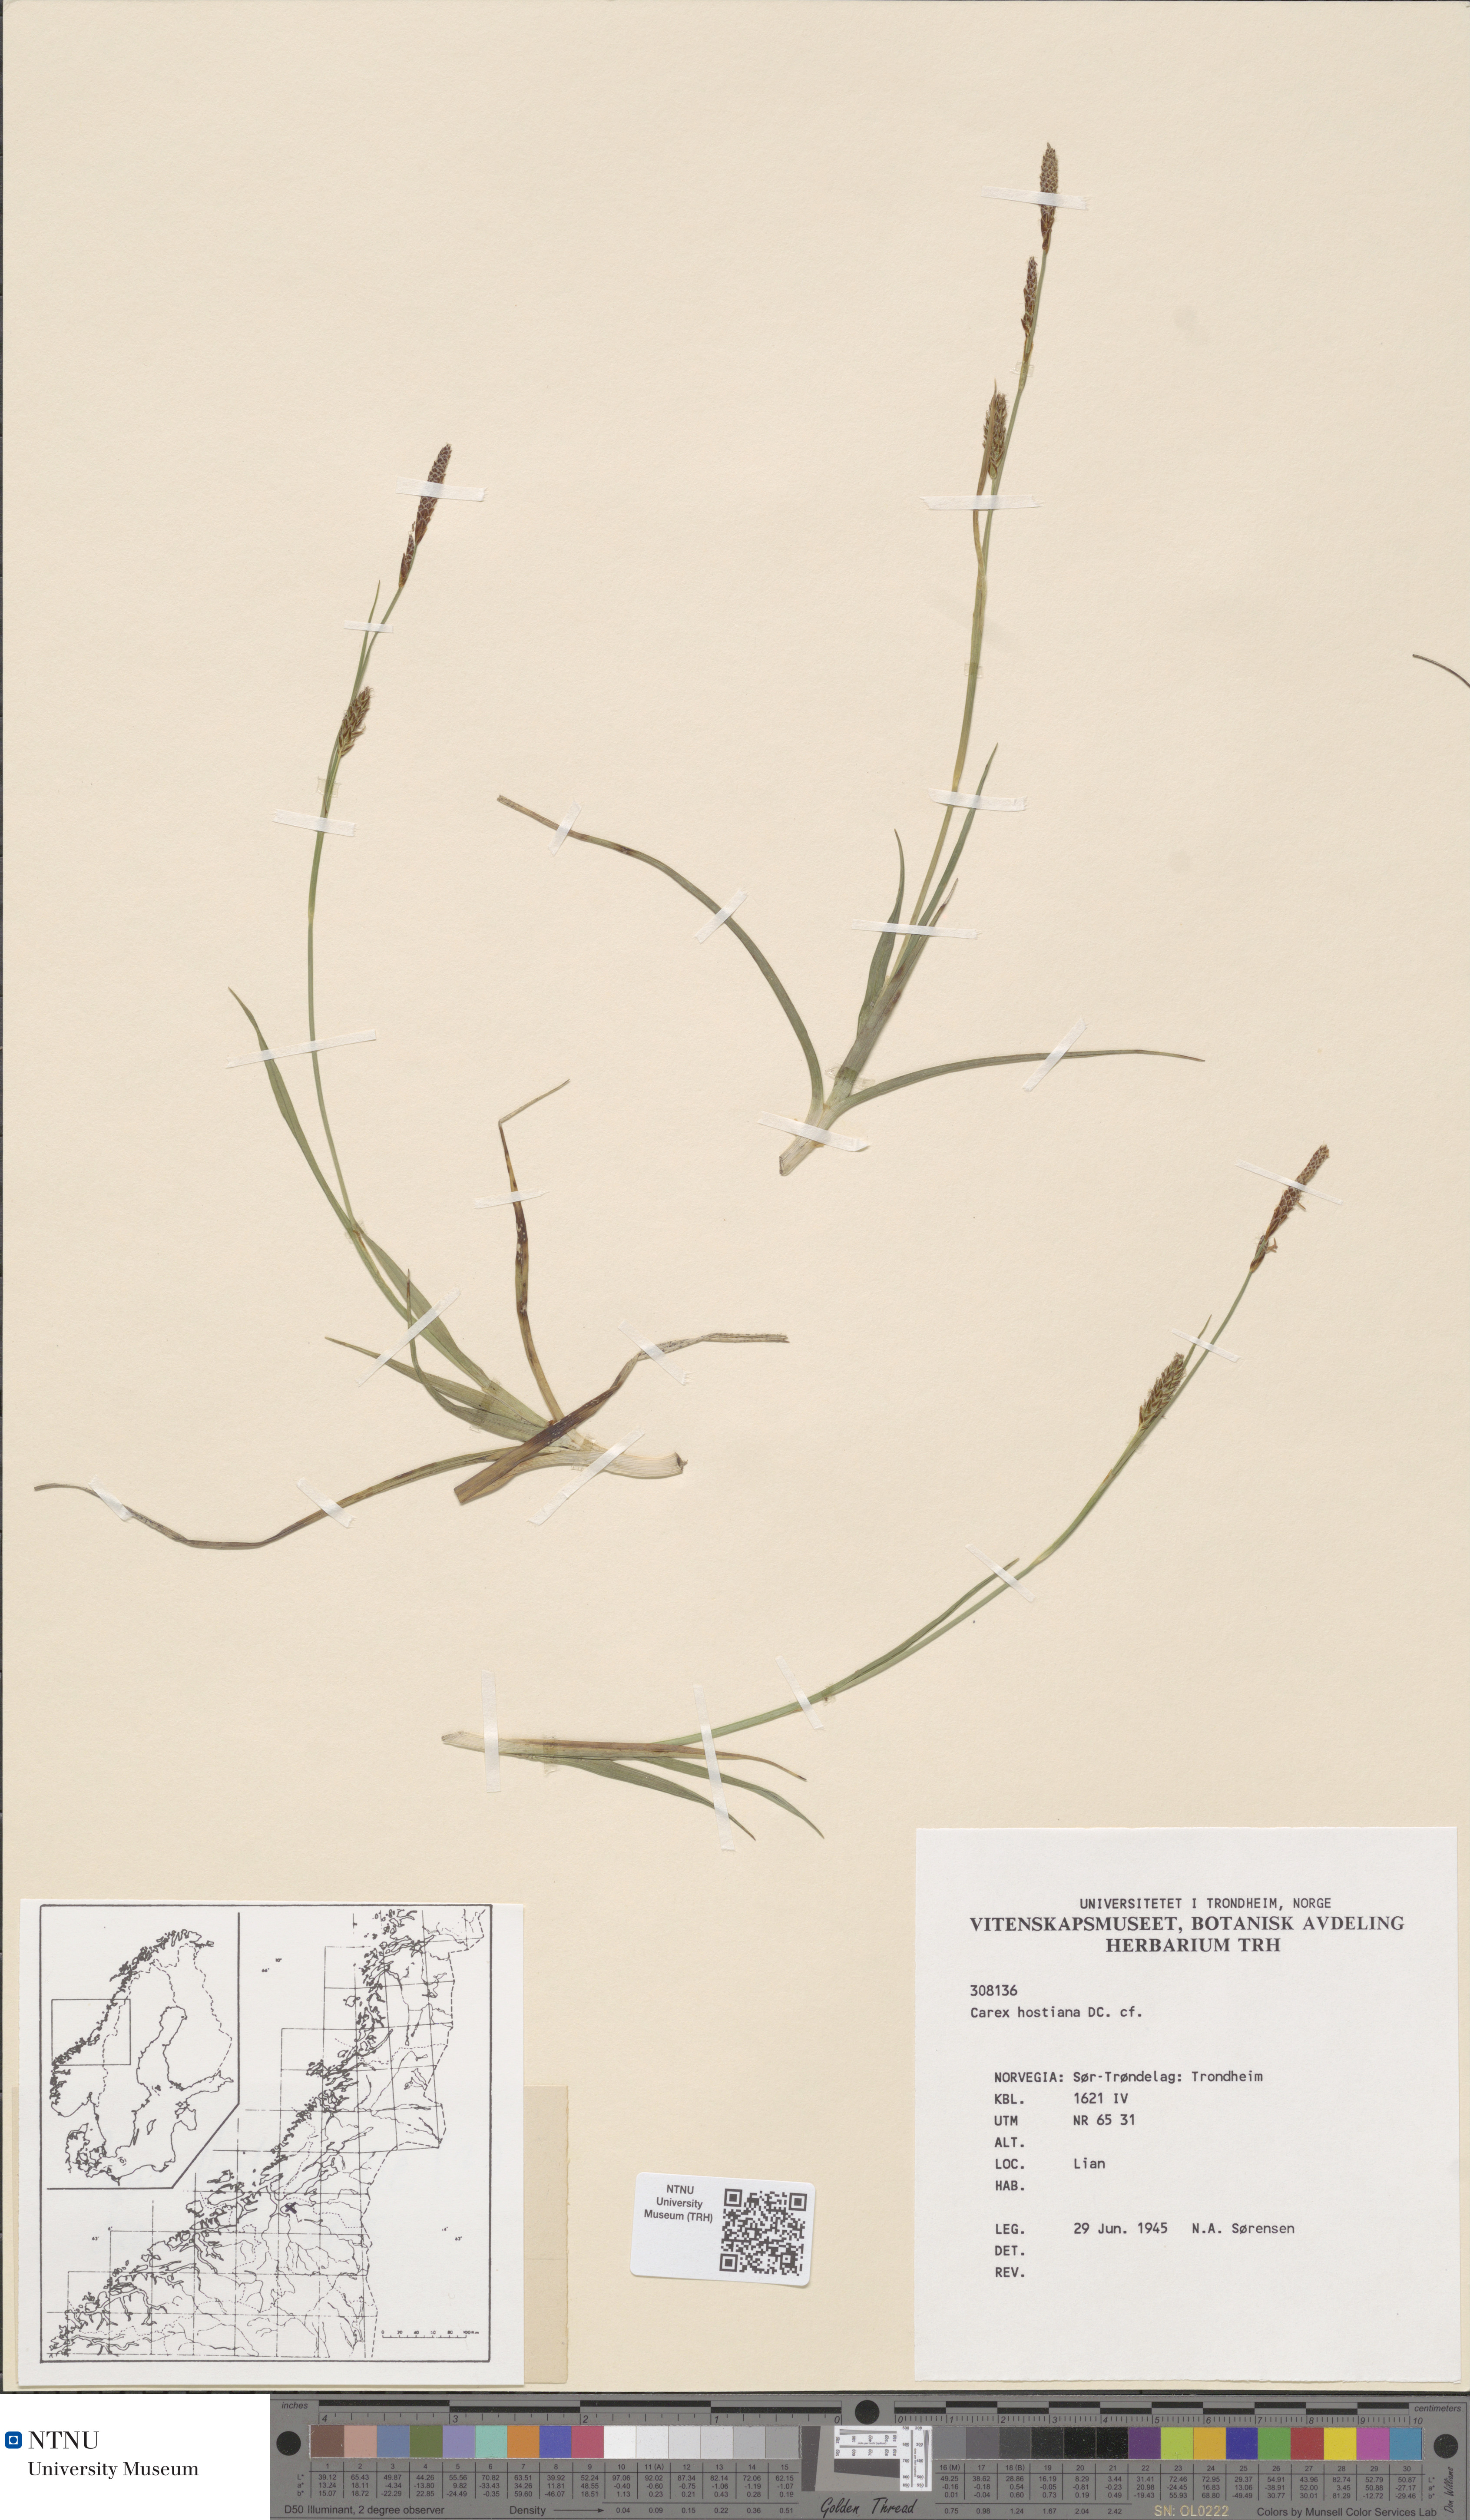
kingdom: Plantae
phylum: Tracheophyta
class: Liliopsida
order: Poales
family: Cyperaceae
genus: Carex
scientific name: Carex hostiana
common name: Tawny sedge
